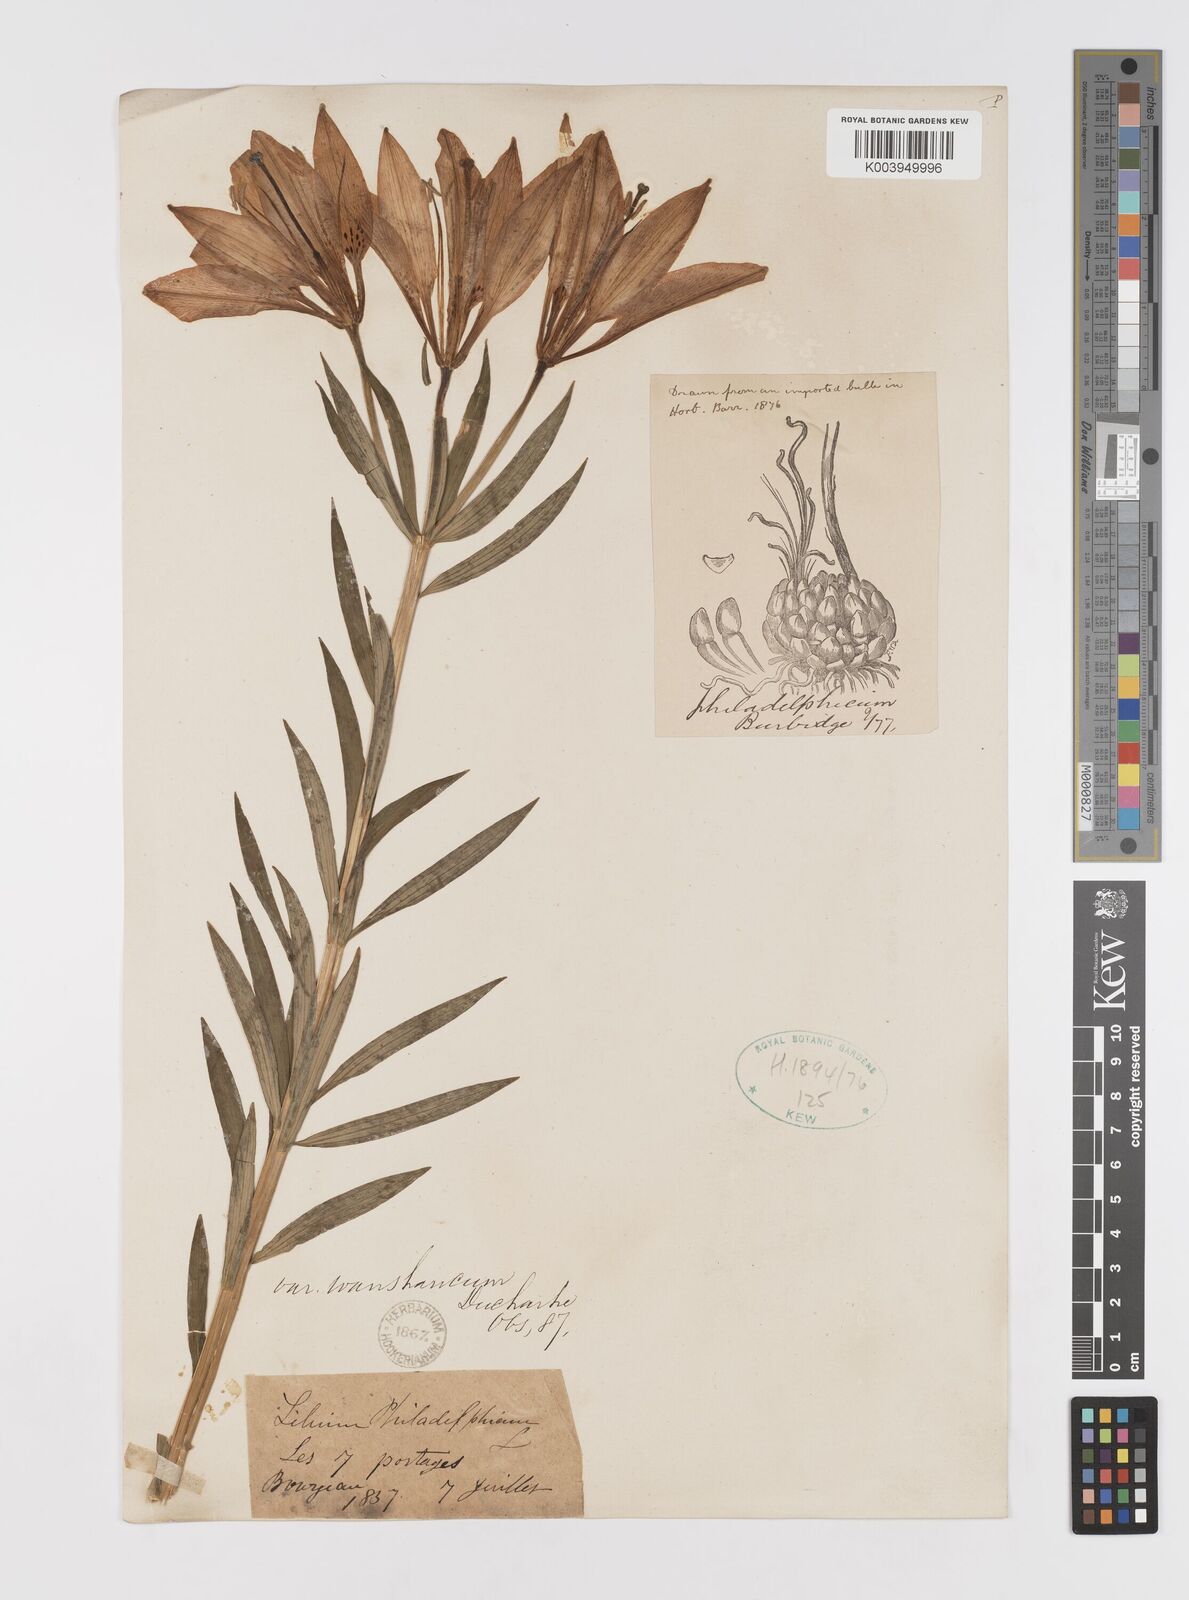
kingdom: Plantae
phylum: Tracheophyta
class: Liliopsida
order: Liliales
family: Liliaceae
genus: Lilium
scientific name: Lilium philadelphicum
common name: Red lily
